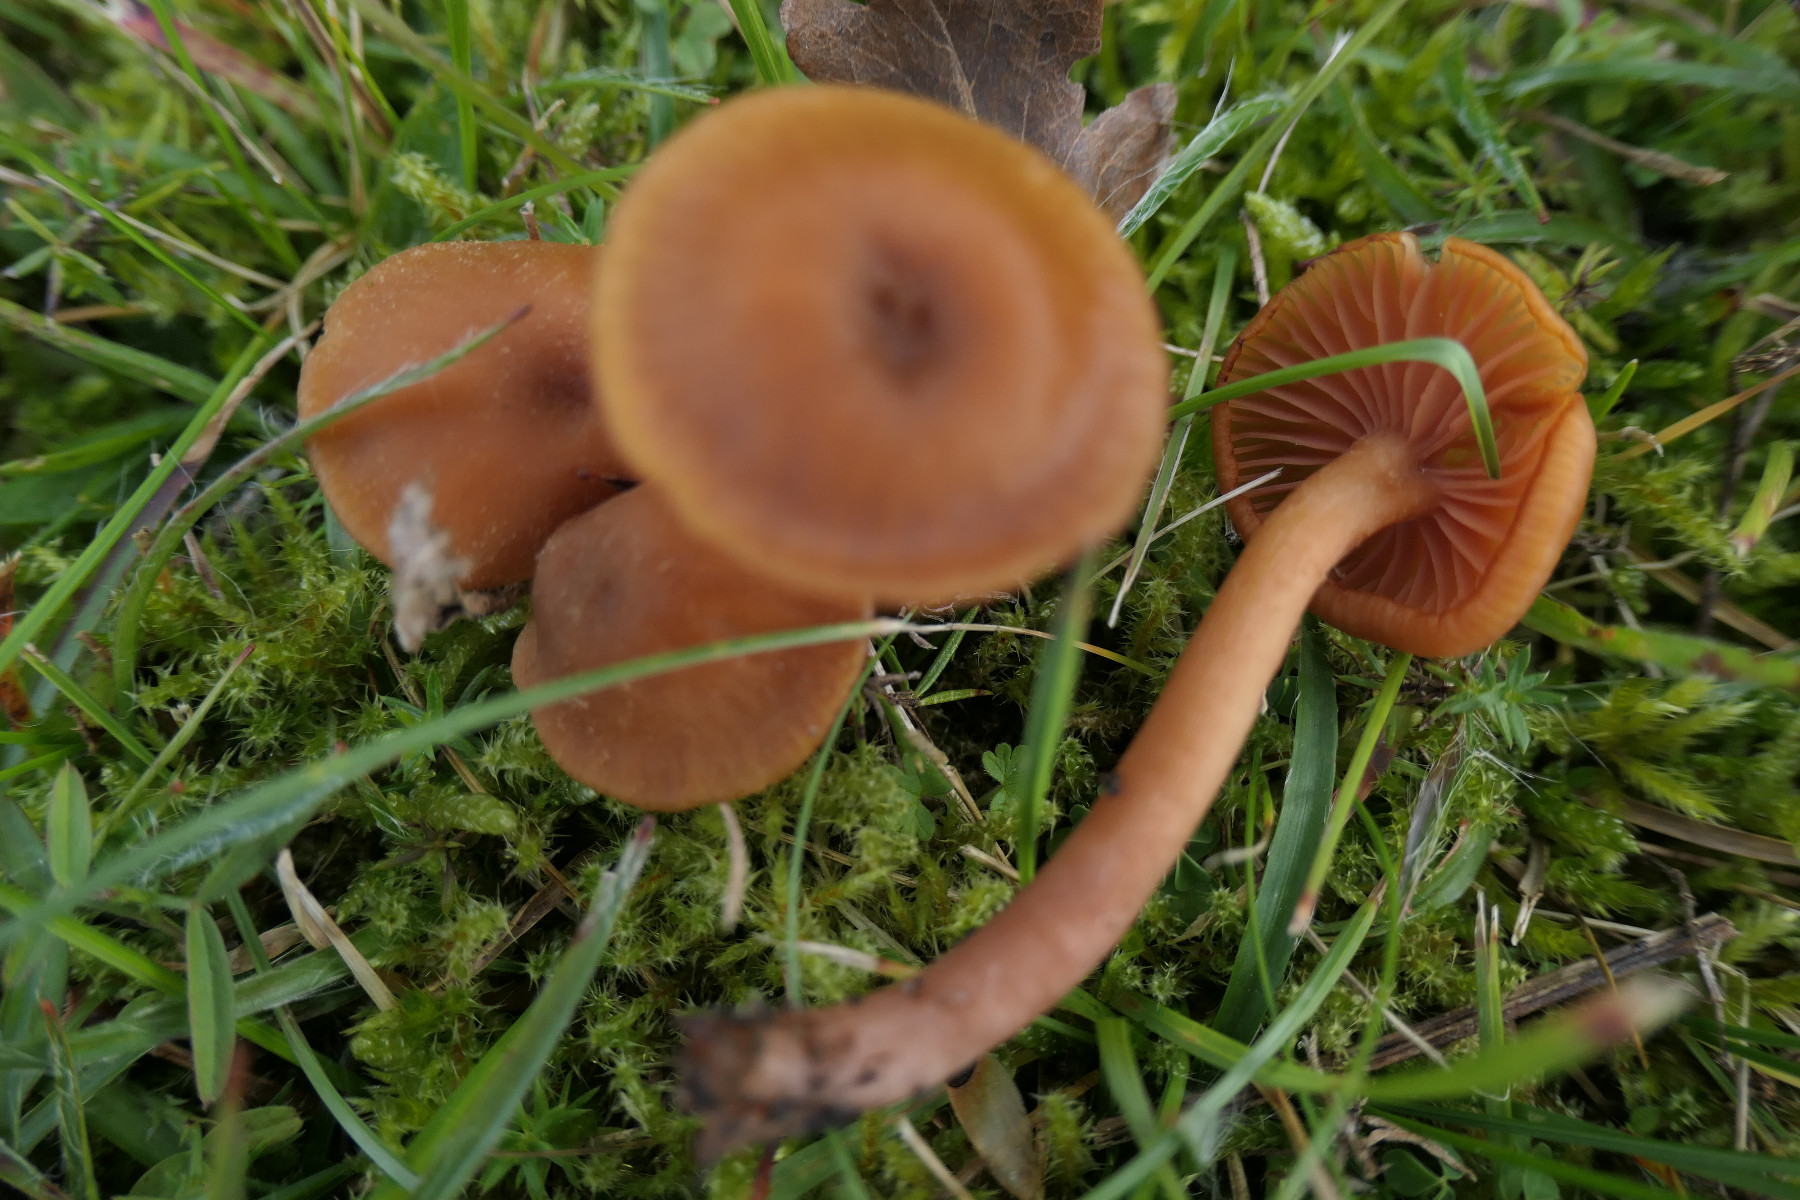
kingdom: Fungi
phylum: Basidiomycota
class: Agaricomycetes
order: Agaricales
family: Hydnangiaceae
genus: Laccaria
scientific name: Laccaria laccata
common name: rød ametysthat
